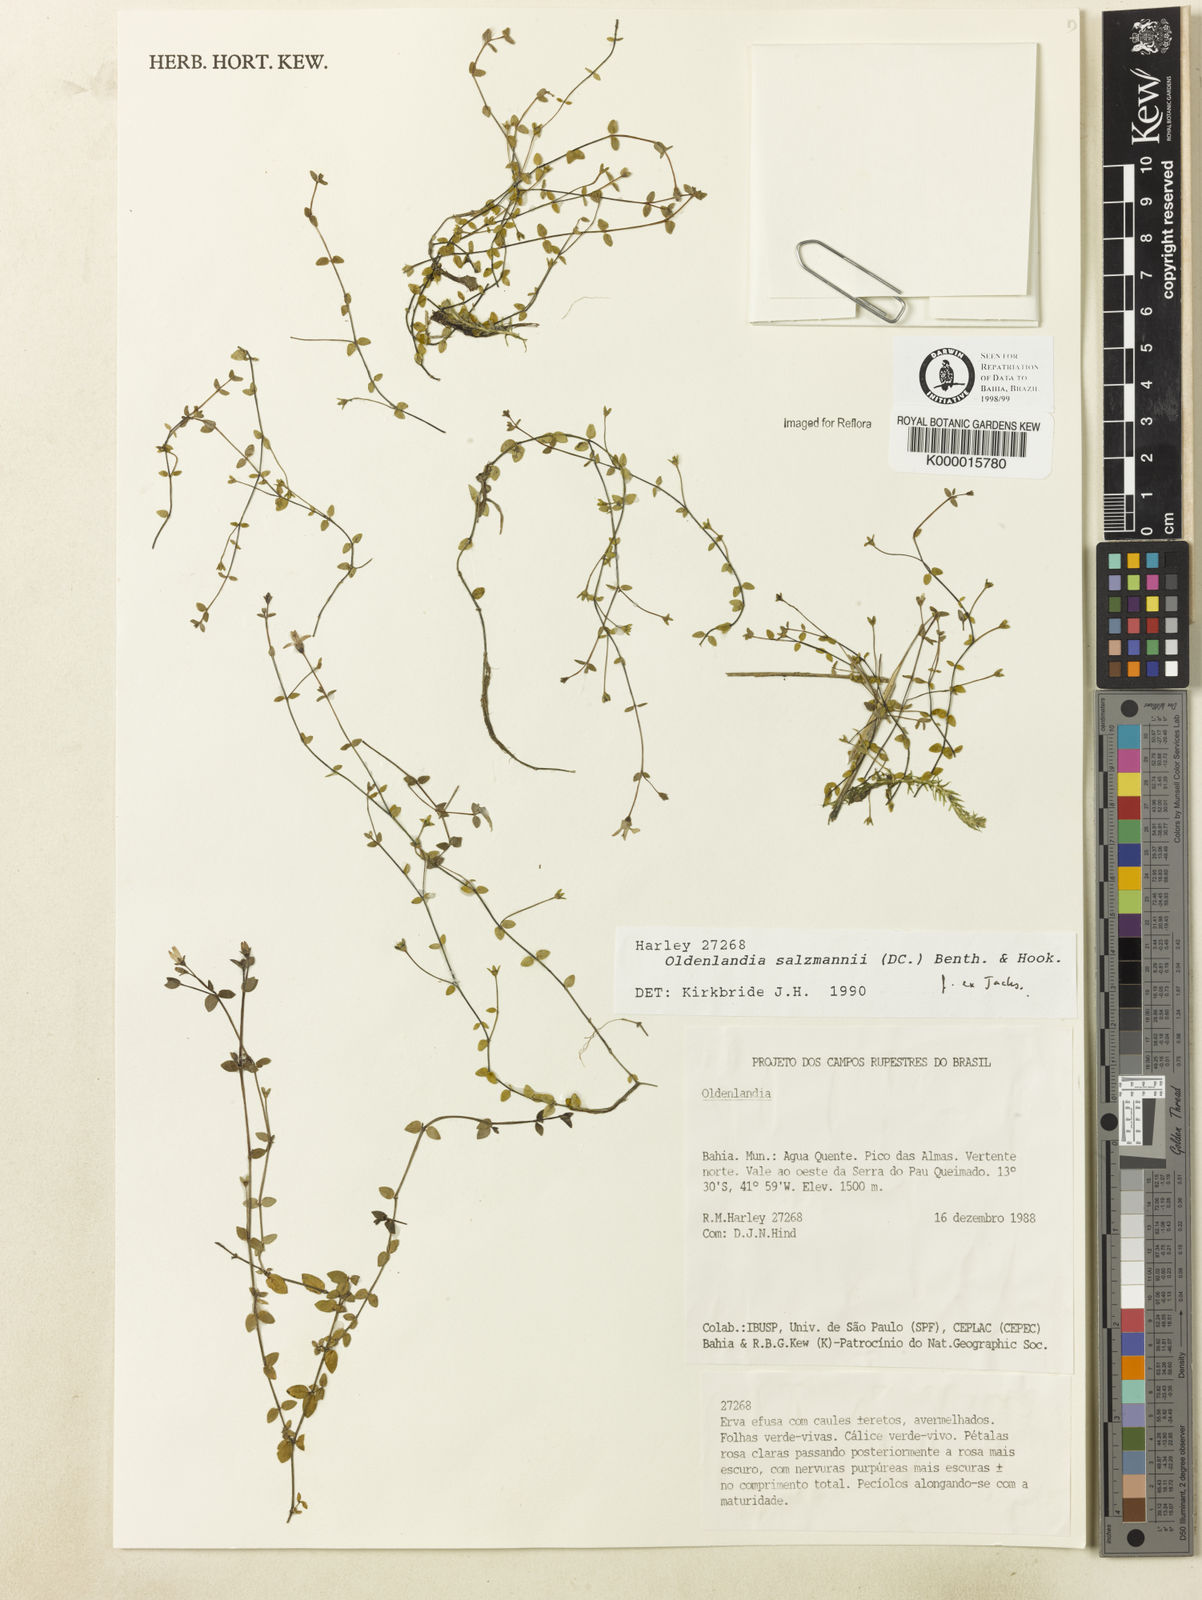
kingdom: Plantae
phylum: Tracheophyta
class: Magnoliopsida
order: Gentianales
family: Rubiaceae
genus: Oldenlandia
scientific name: Oldenlandia salzmannii
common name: Salzmann's mille graines
